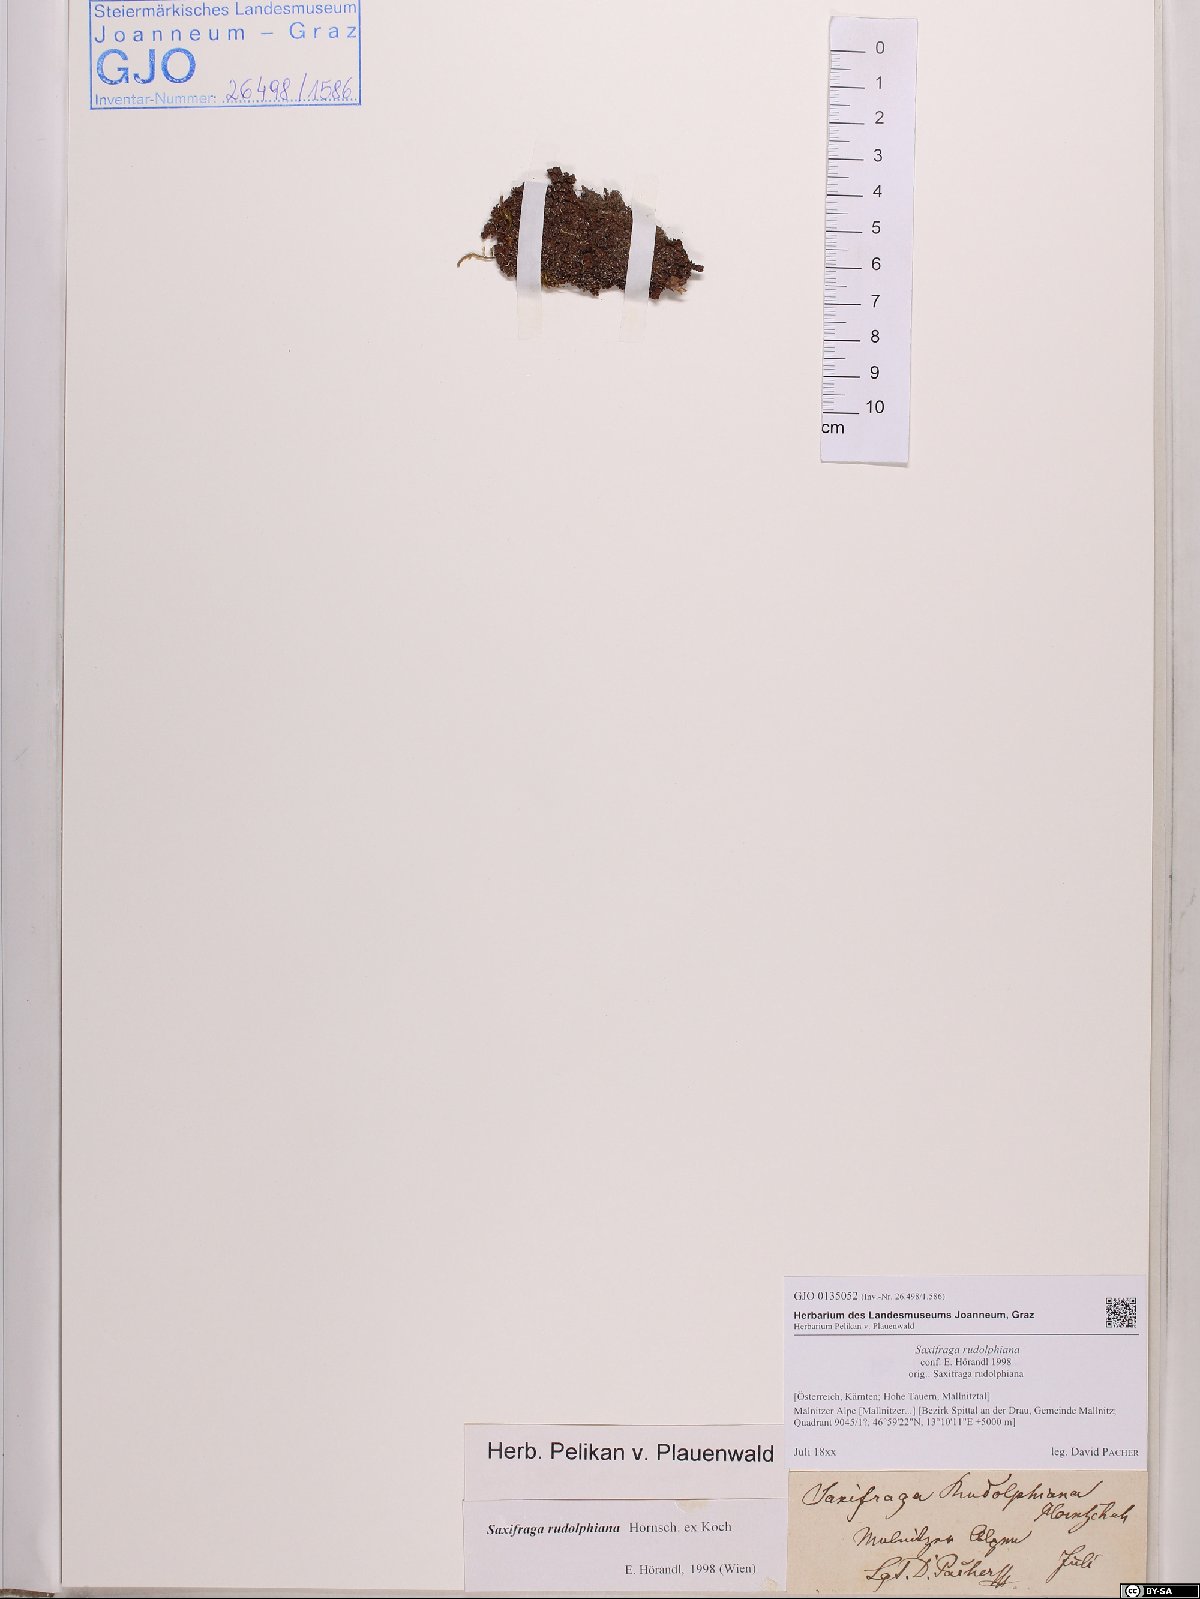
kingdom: Plantae
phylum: Tracheophyta
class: Magnoliopsida
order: Saxifragales
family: Saxifragaceae
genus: Saxifraga
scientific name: Saxifraga oppositifolia
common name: Purple saxifrage
